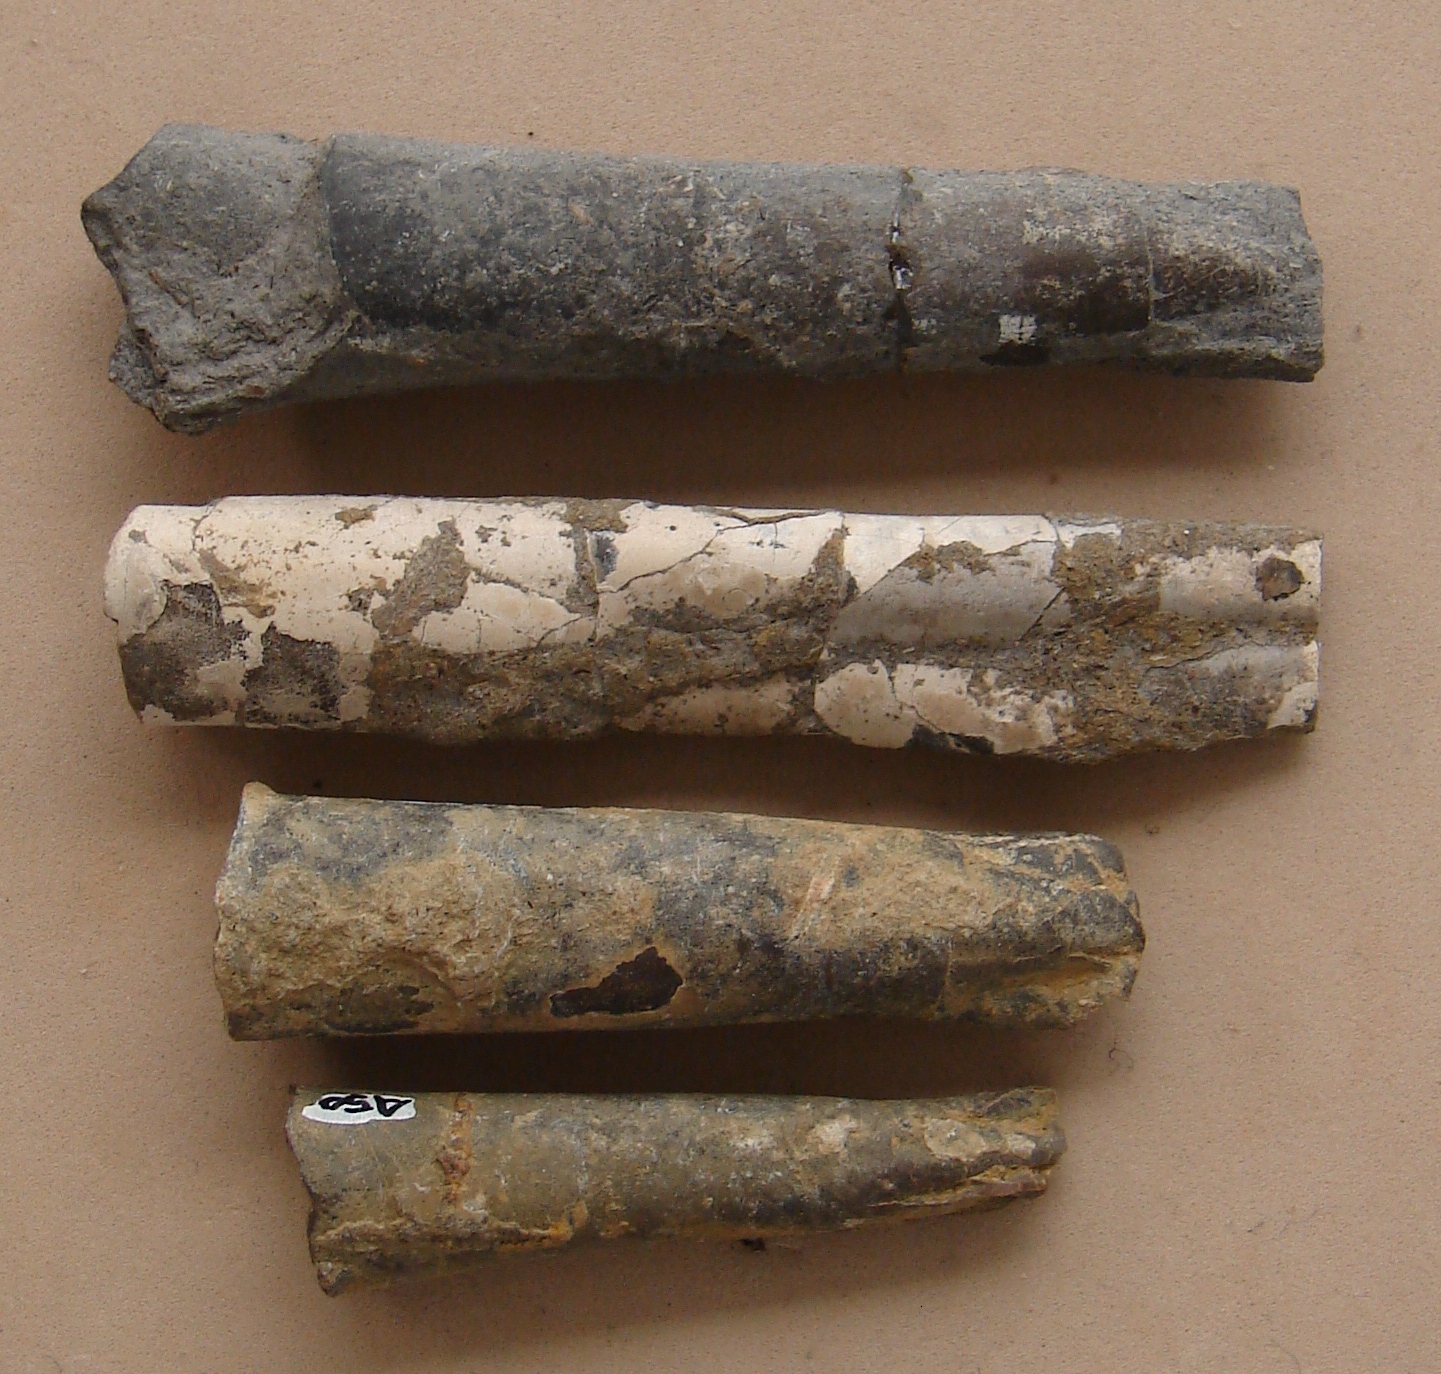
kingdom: Animalia
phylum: Mollusca
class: Cephalopoda
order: Belemnitida
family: Megateuthididae
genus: Dactyloteuthis
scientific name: Dactyloteuthis
